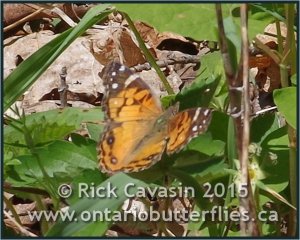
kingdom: Animalia
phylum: Arthropoda
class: Insecta
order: Lepidoptera
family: Nymphalidae
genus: Vanessa
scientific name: Vanessa virginiensis
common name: American Lady
